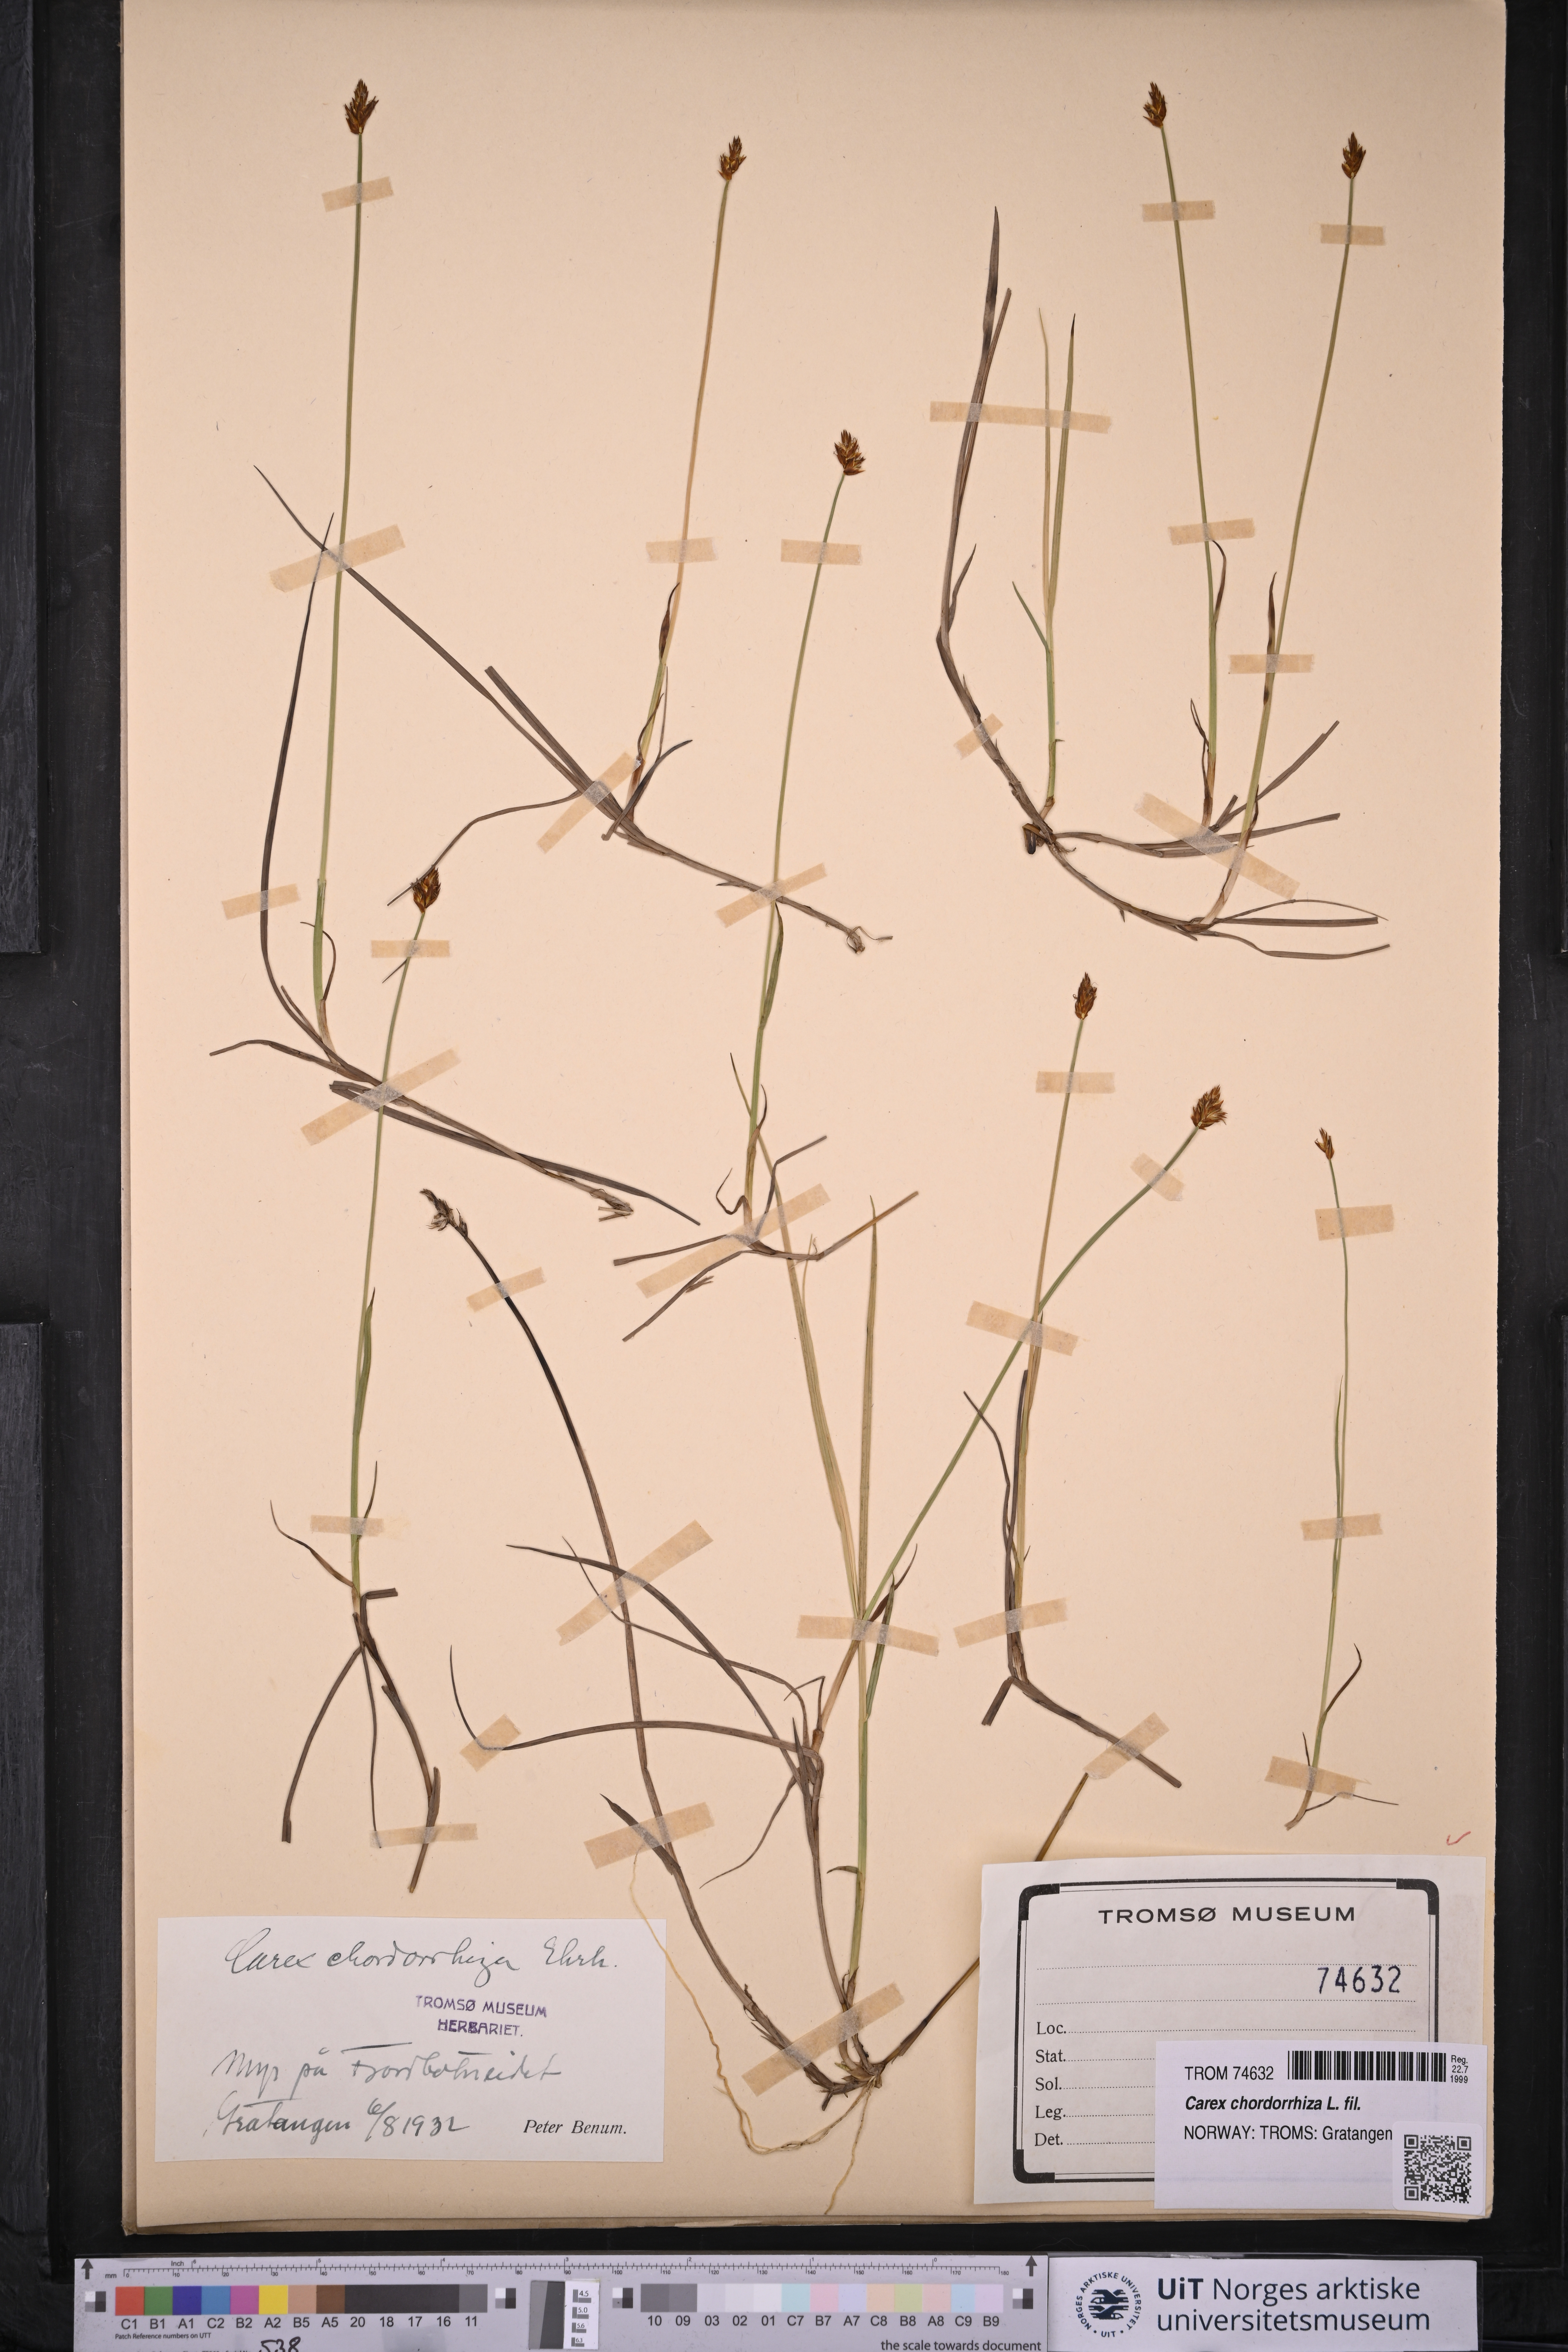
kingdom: Plantae
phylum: Tracheophyta
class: Liliopsida
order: Poales
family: Cyperaceae
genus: Carex
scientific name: Carex chordorrhiza
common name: String sedge
